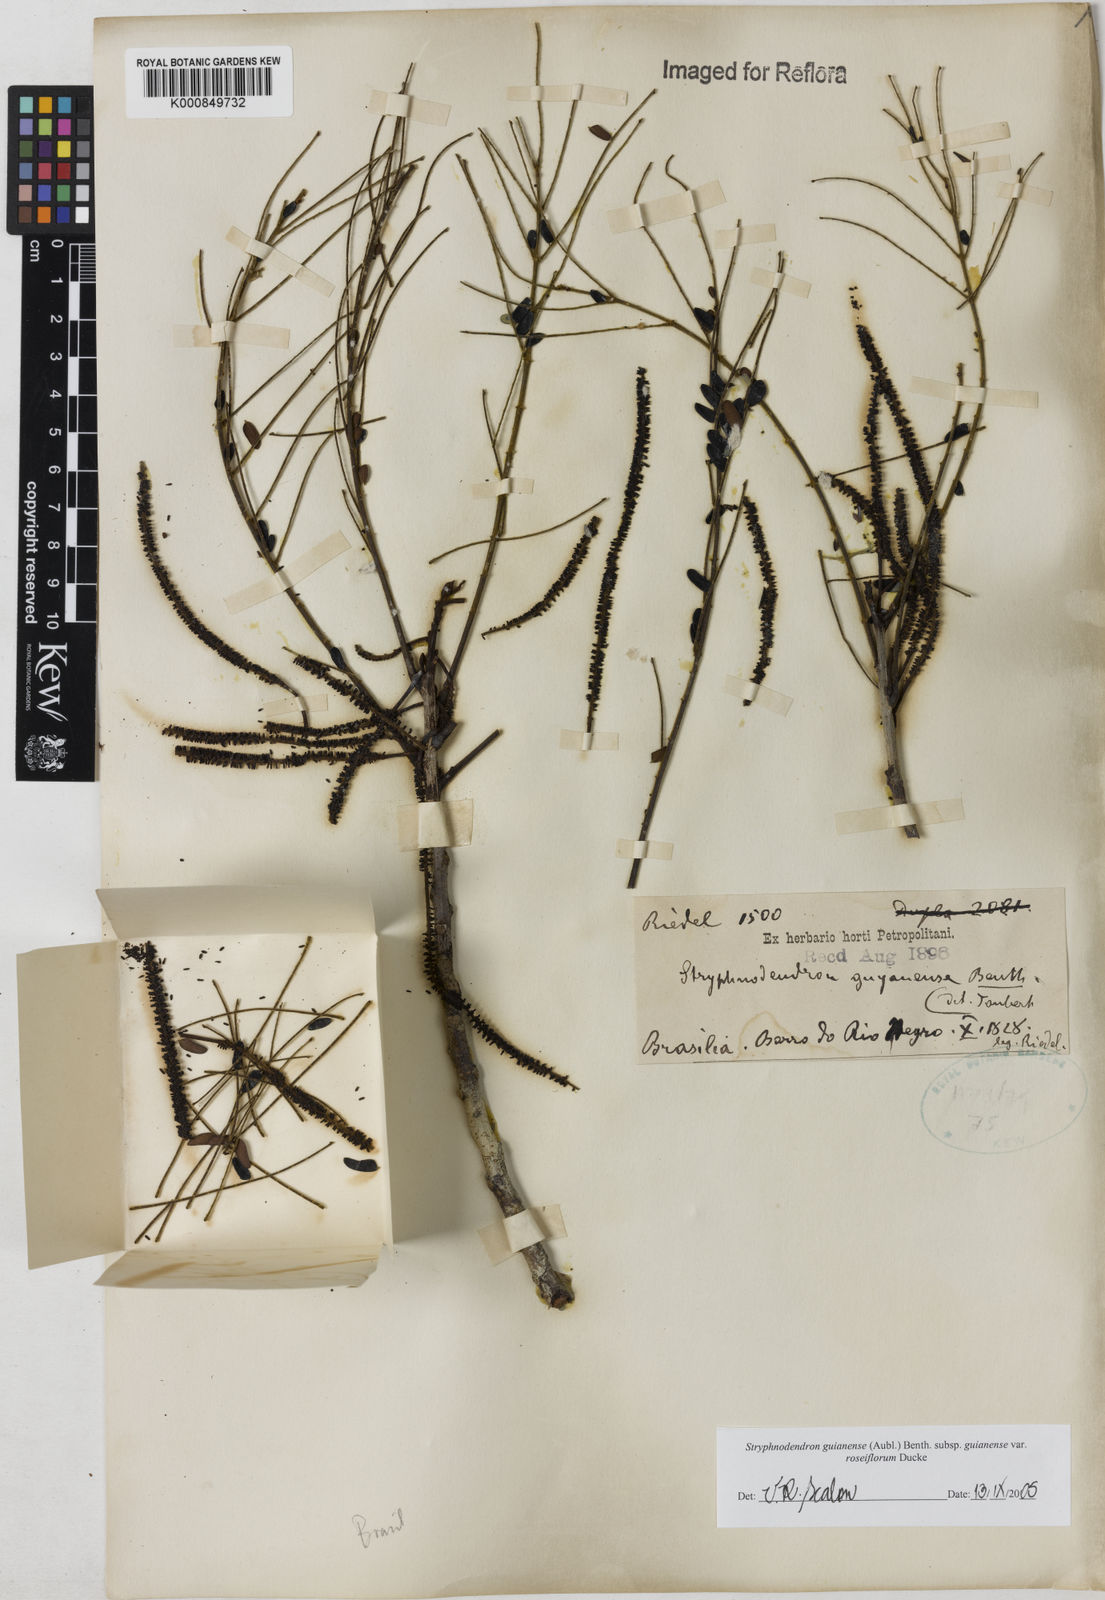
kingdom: Plantae
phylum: Tracheophyta
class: Magnoliopsida
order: Fabales
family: Fabaceae
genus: Stryphnodendron
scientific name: Stryphnodendron guianense
